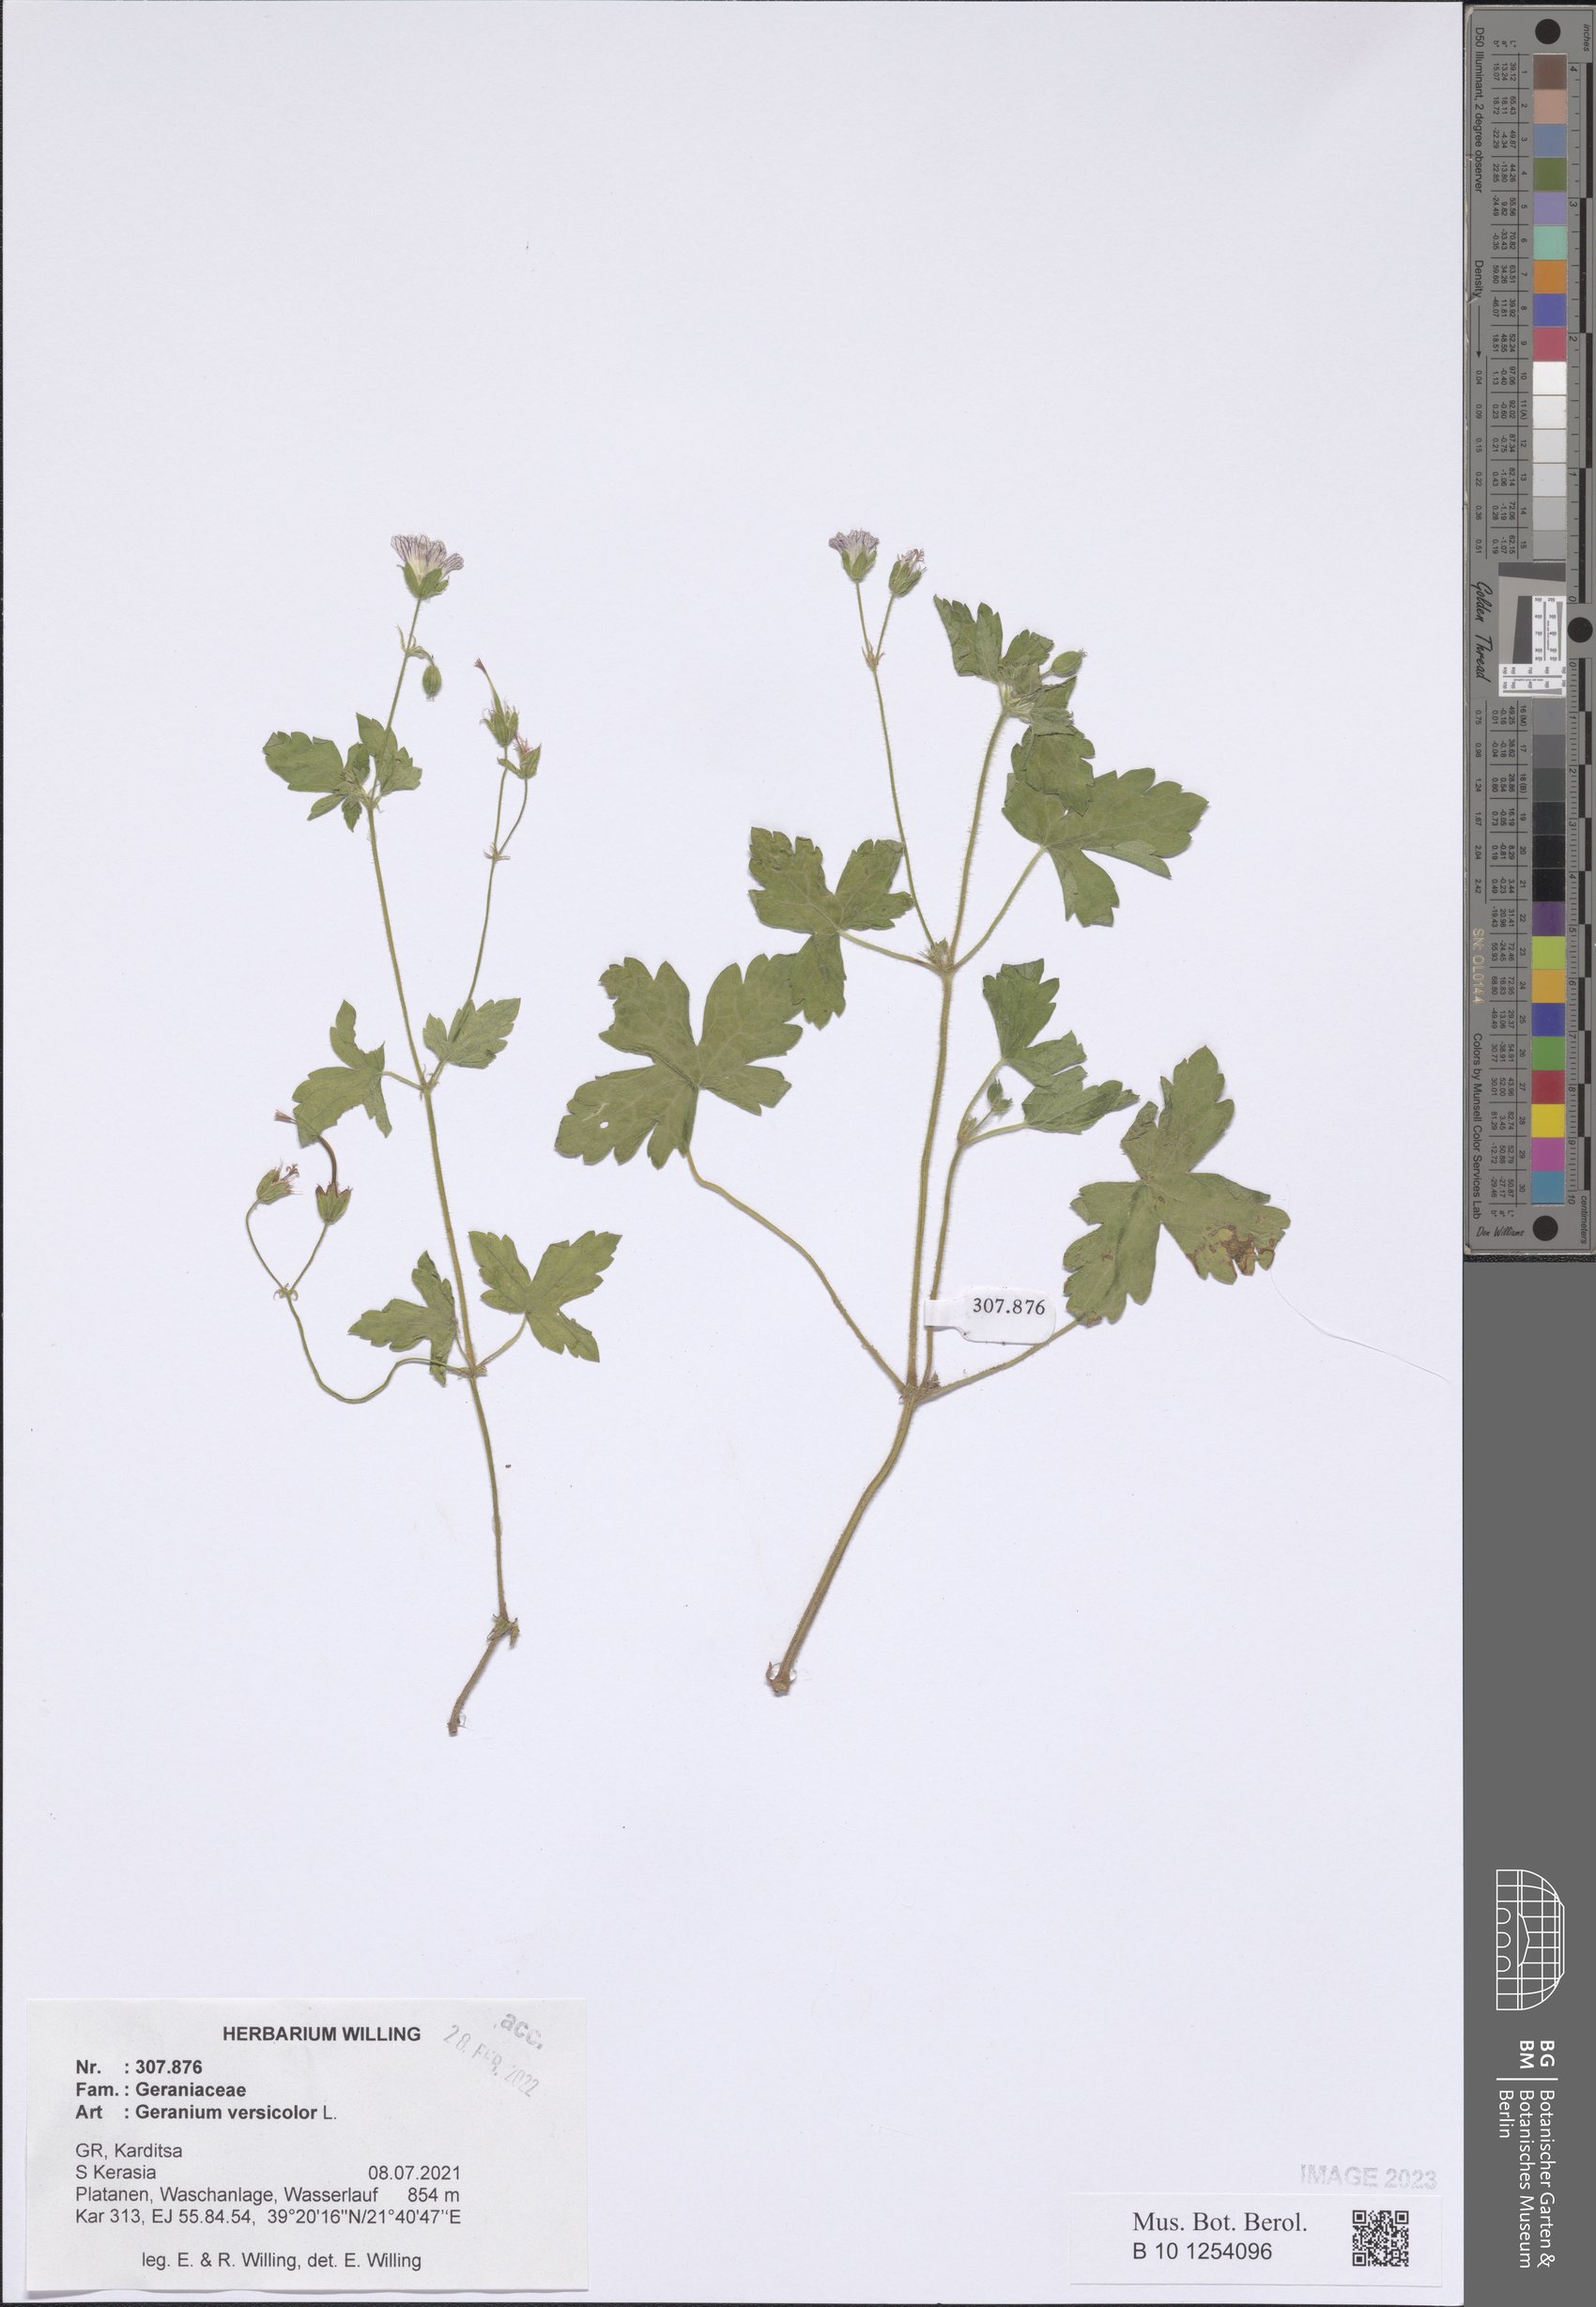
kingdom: Plantae
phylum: Tracheophyta
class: Magnoliopsida
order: Geraniales
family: Geraniaceae
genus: Geranium
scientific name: Geranium versicolor
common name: Pencilled crane's-bill
